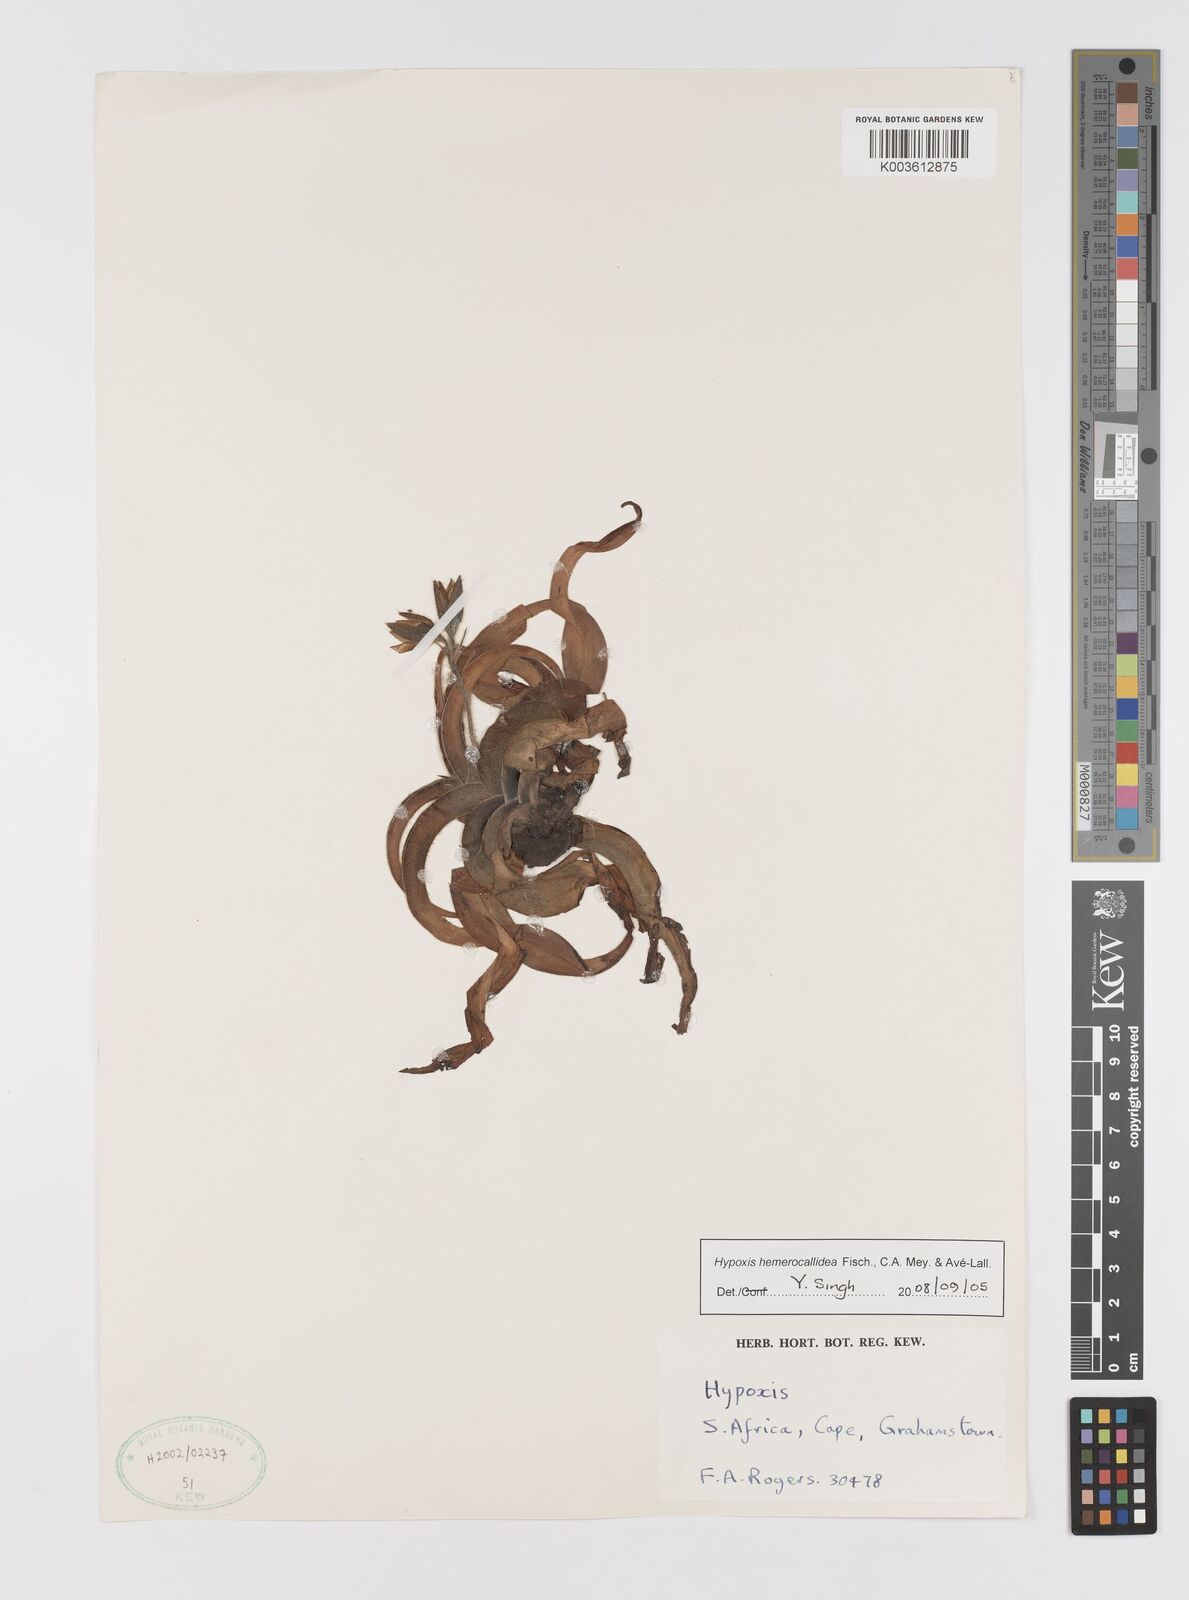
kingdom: Plantae
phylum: Tracheophyta
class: Liliopsida
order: Asparagales
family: Hypoxidaceae
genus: Hypoxis
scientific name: Hypoxis hemerocallidea
